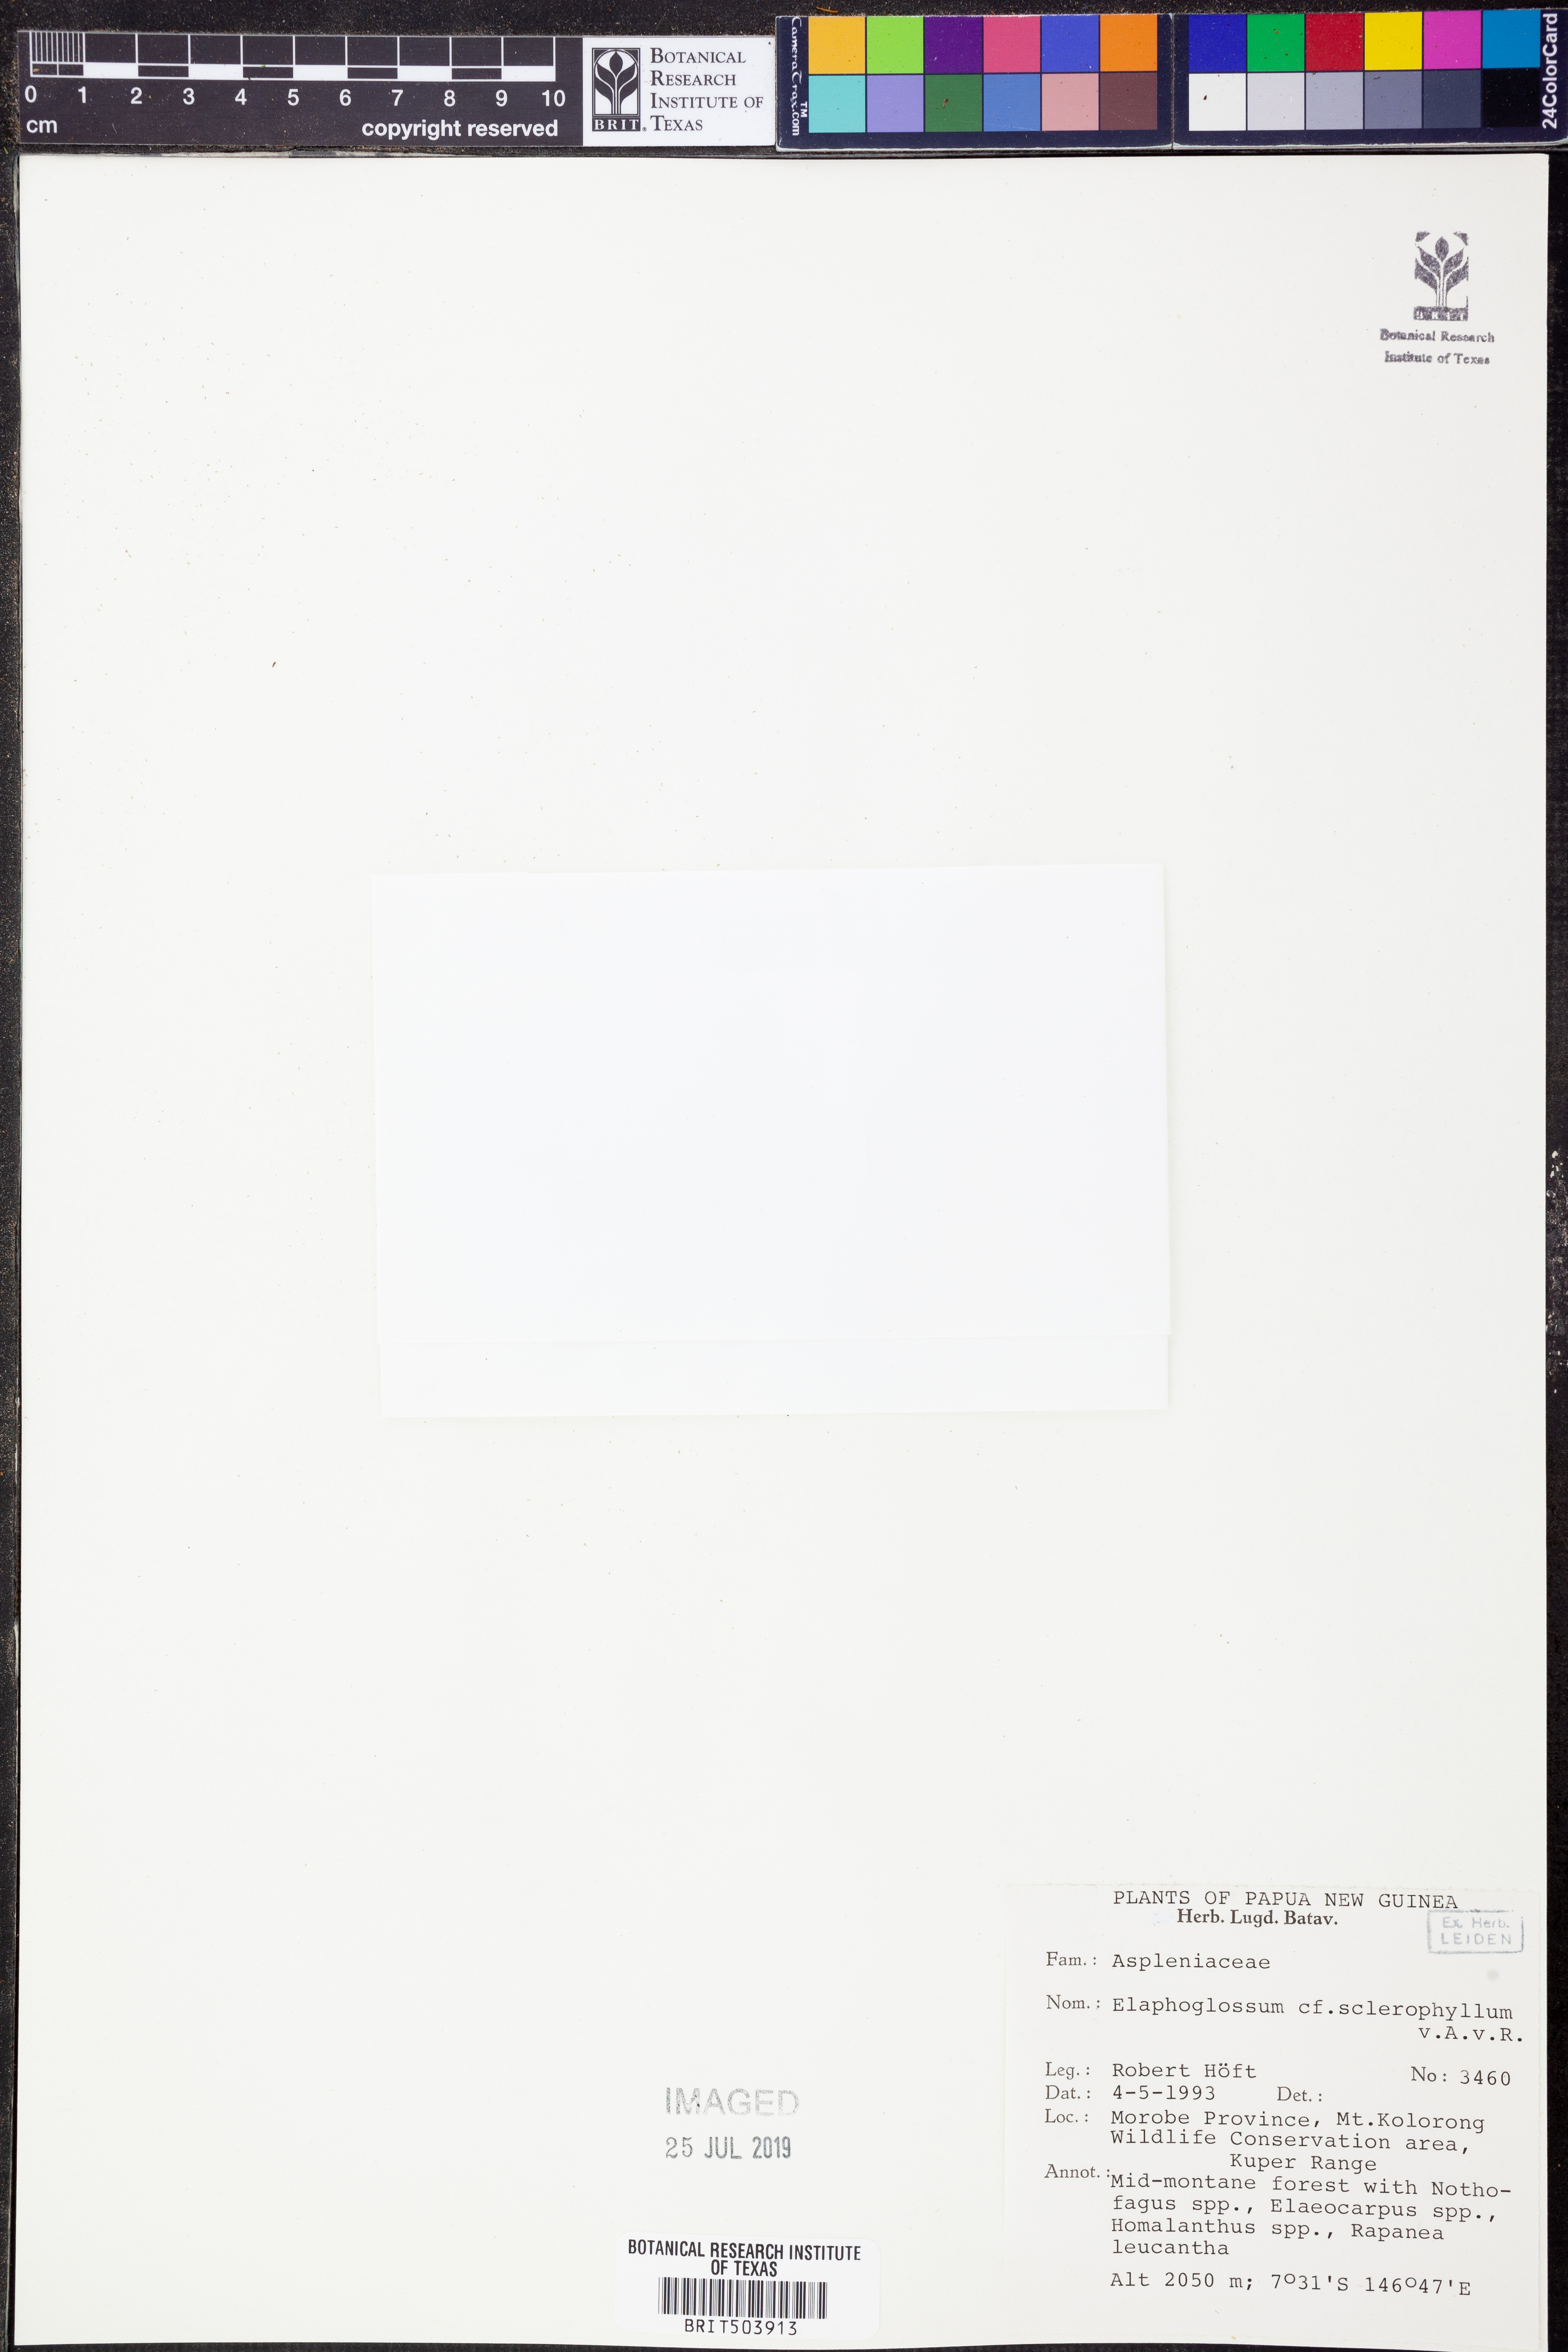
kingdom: Plantae
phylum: Tracheophyta
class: Polypodiopsida
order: Polypodiales
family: Dryopteridaceae
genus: Elaphoglossum
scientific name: Elaphoglossum sclerophyllum
